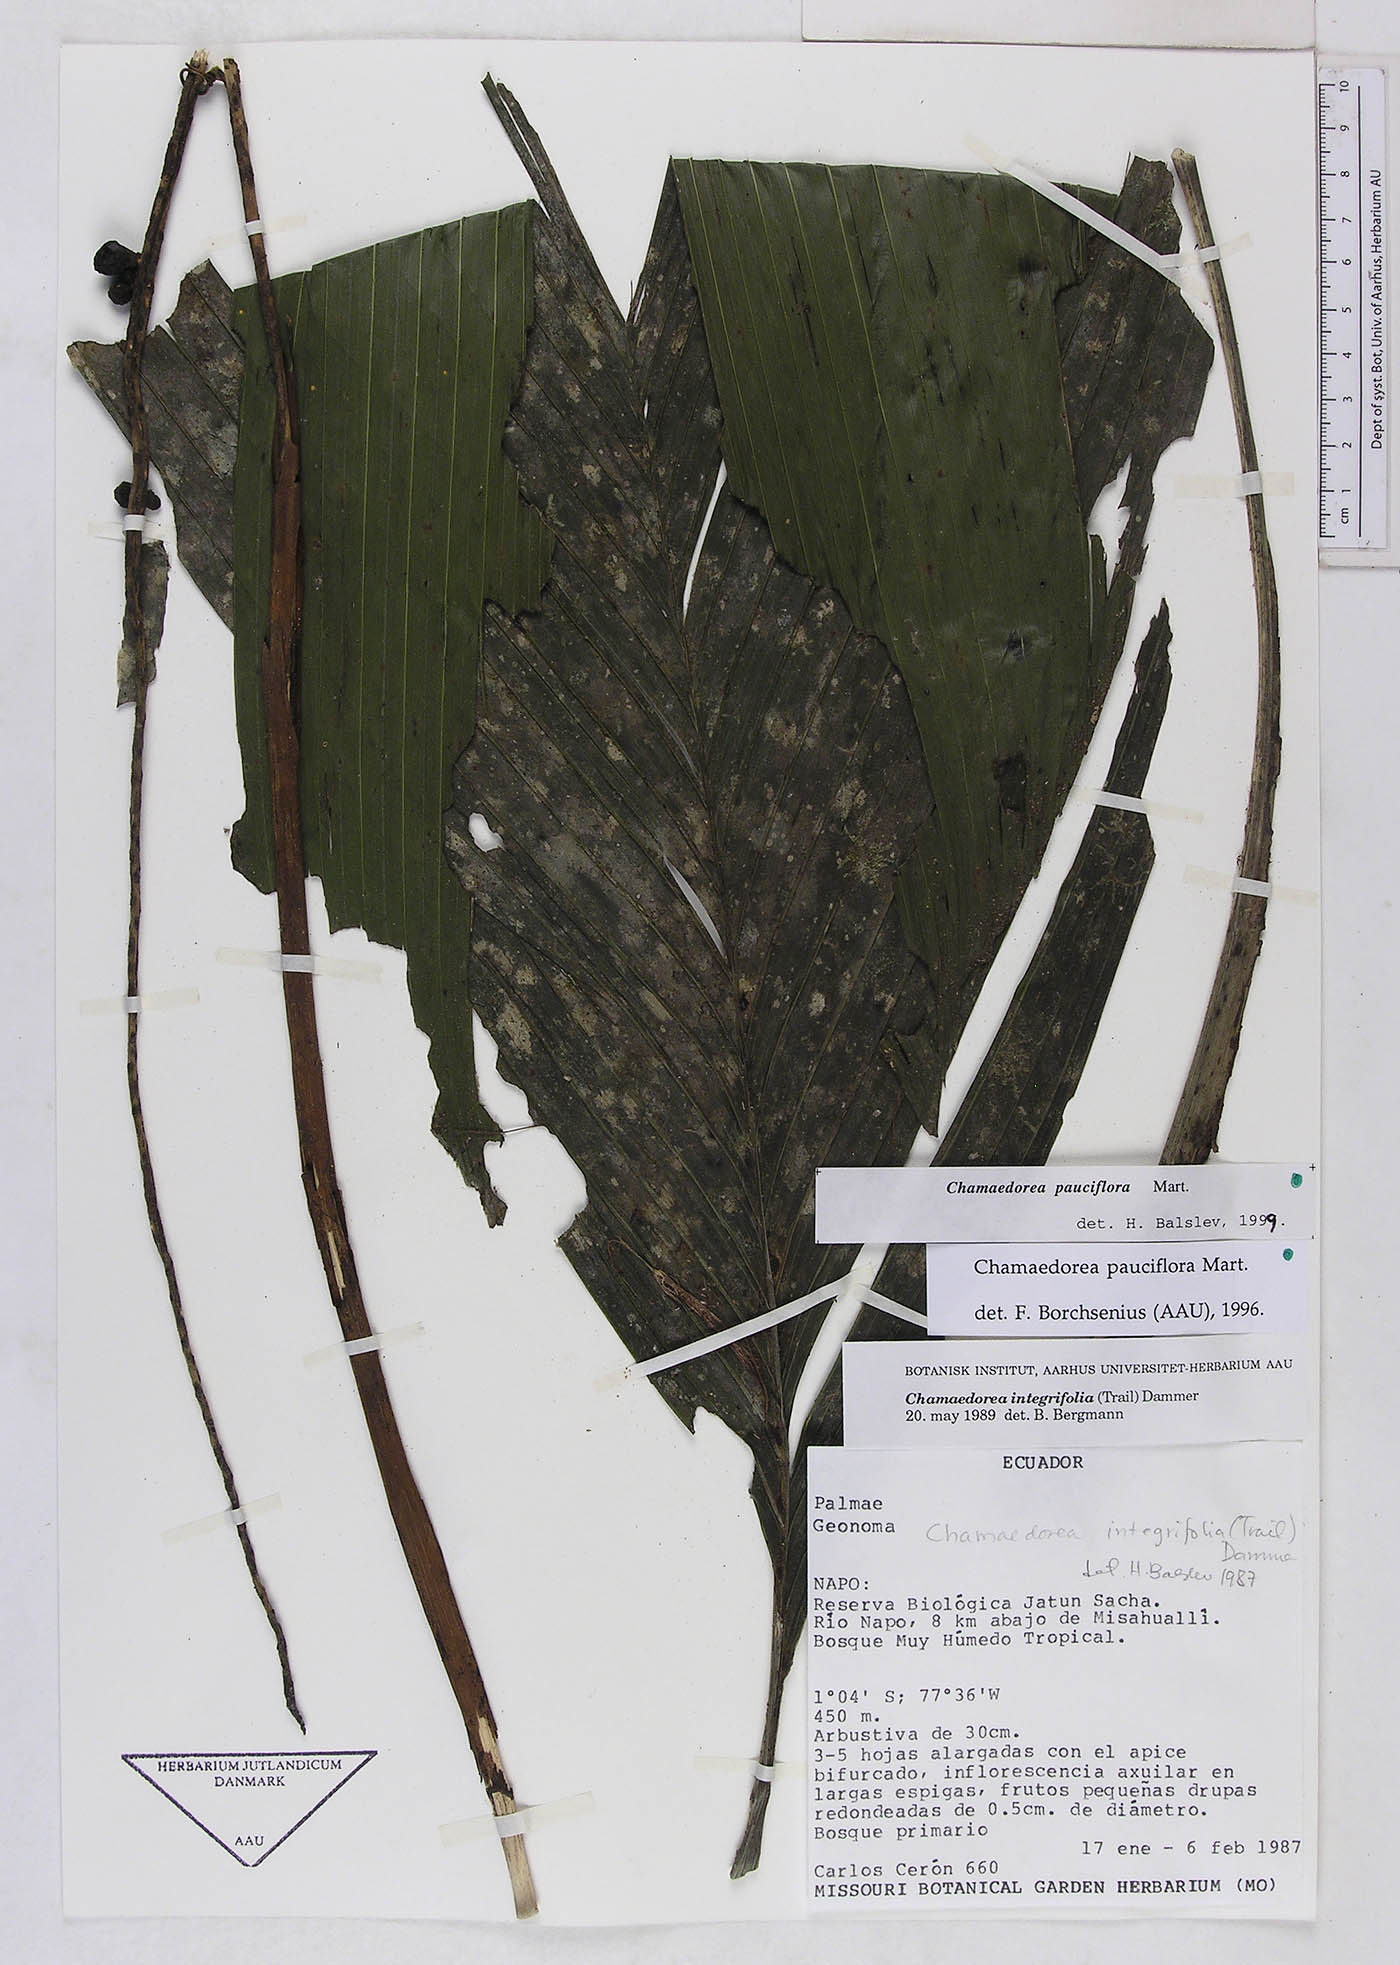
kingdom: Plantae
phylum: Tracheophyta
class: Liliopsida
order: Arecales
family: Arecaceae
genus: Chamaedorea
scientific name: Chamaedorea pauciflora
